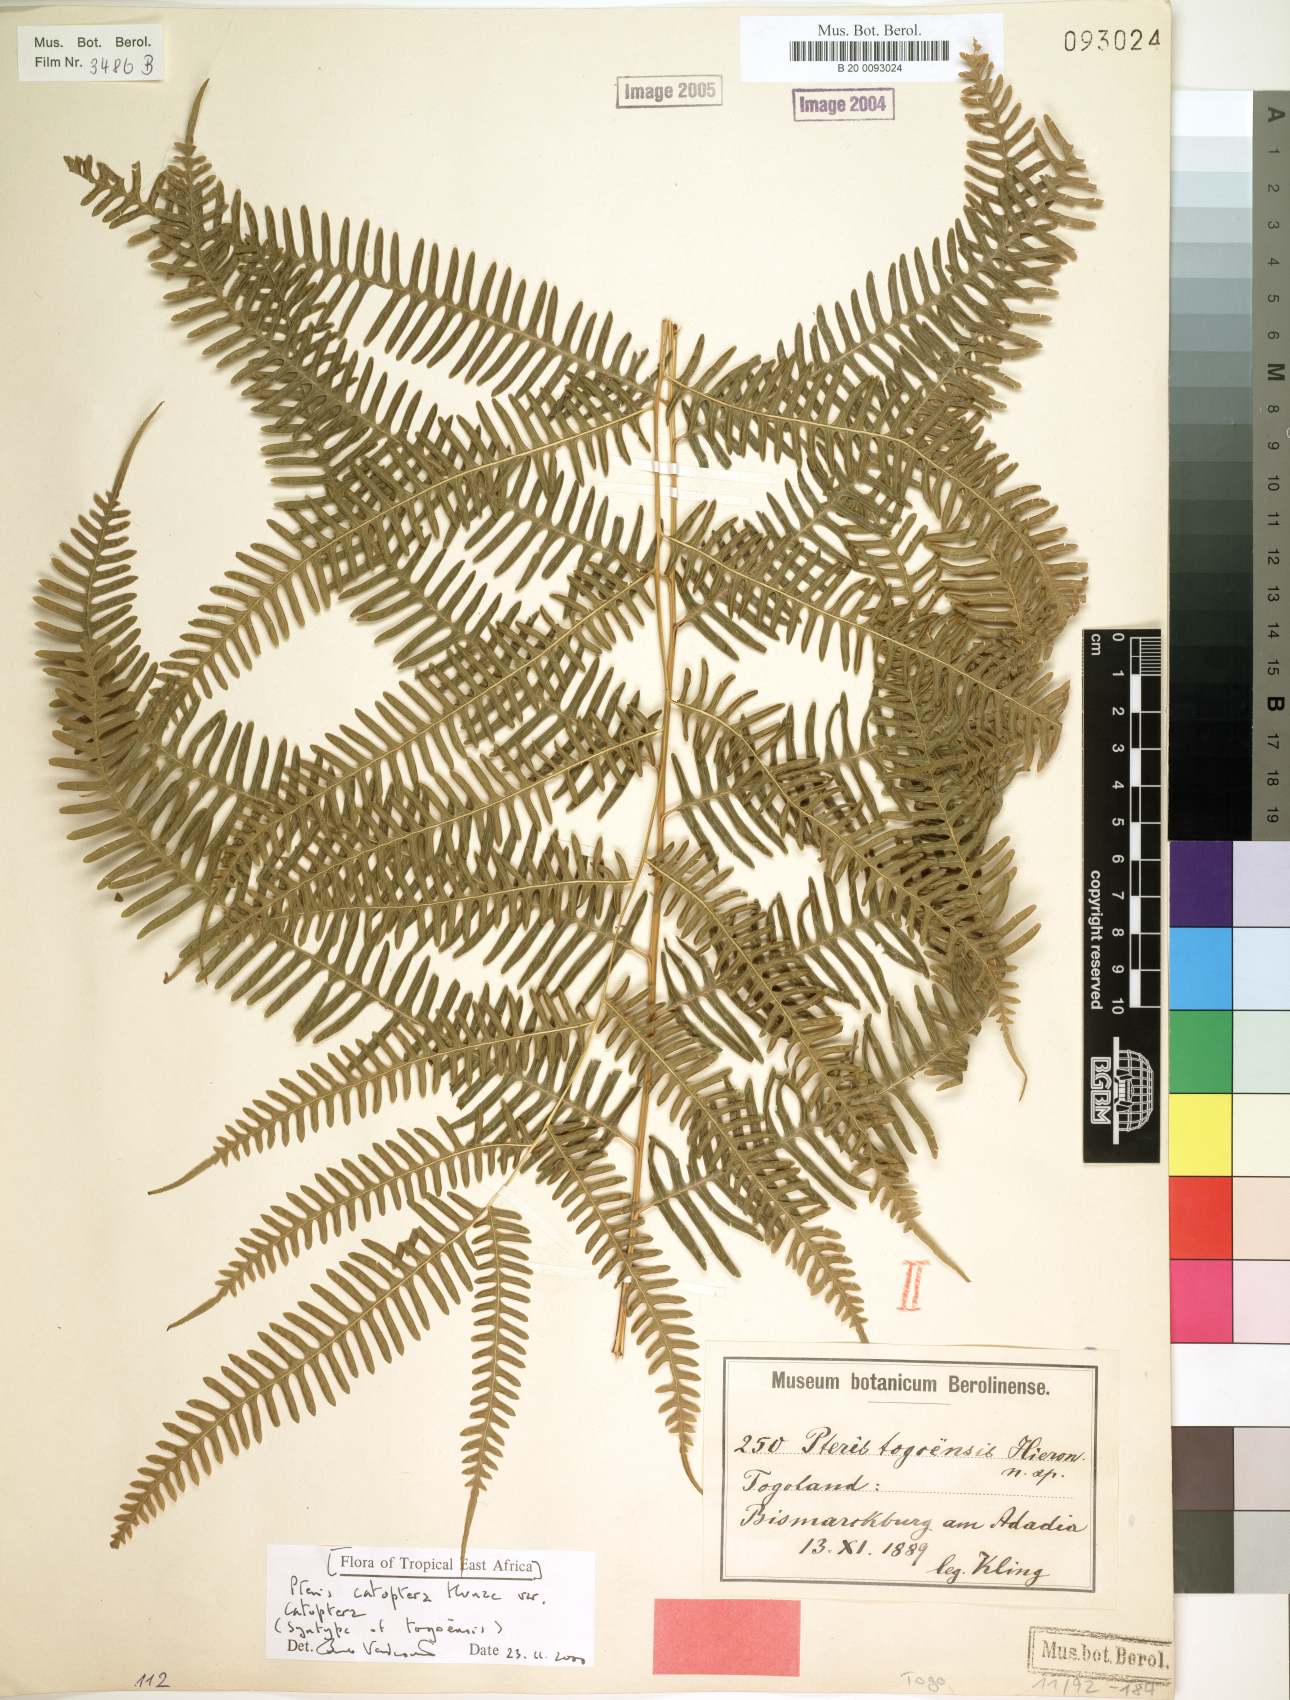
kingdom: Plantae
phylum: Tracheophyta
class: Polypodiopsida
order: Polypodiales
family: Pteridaceae
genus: Pteris
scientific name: Pteris togoensis
